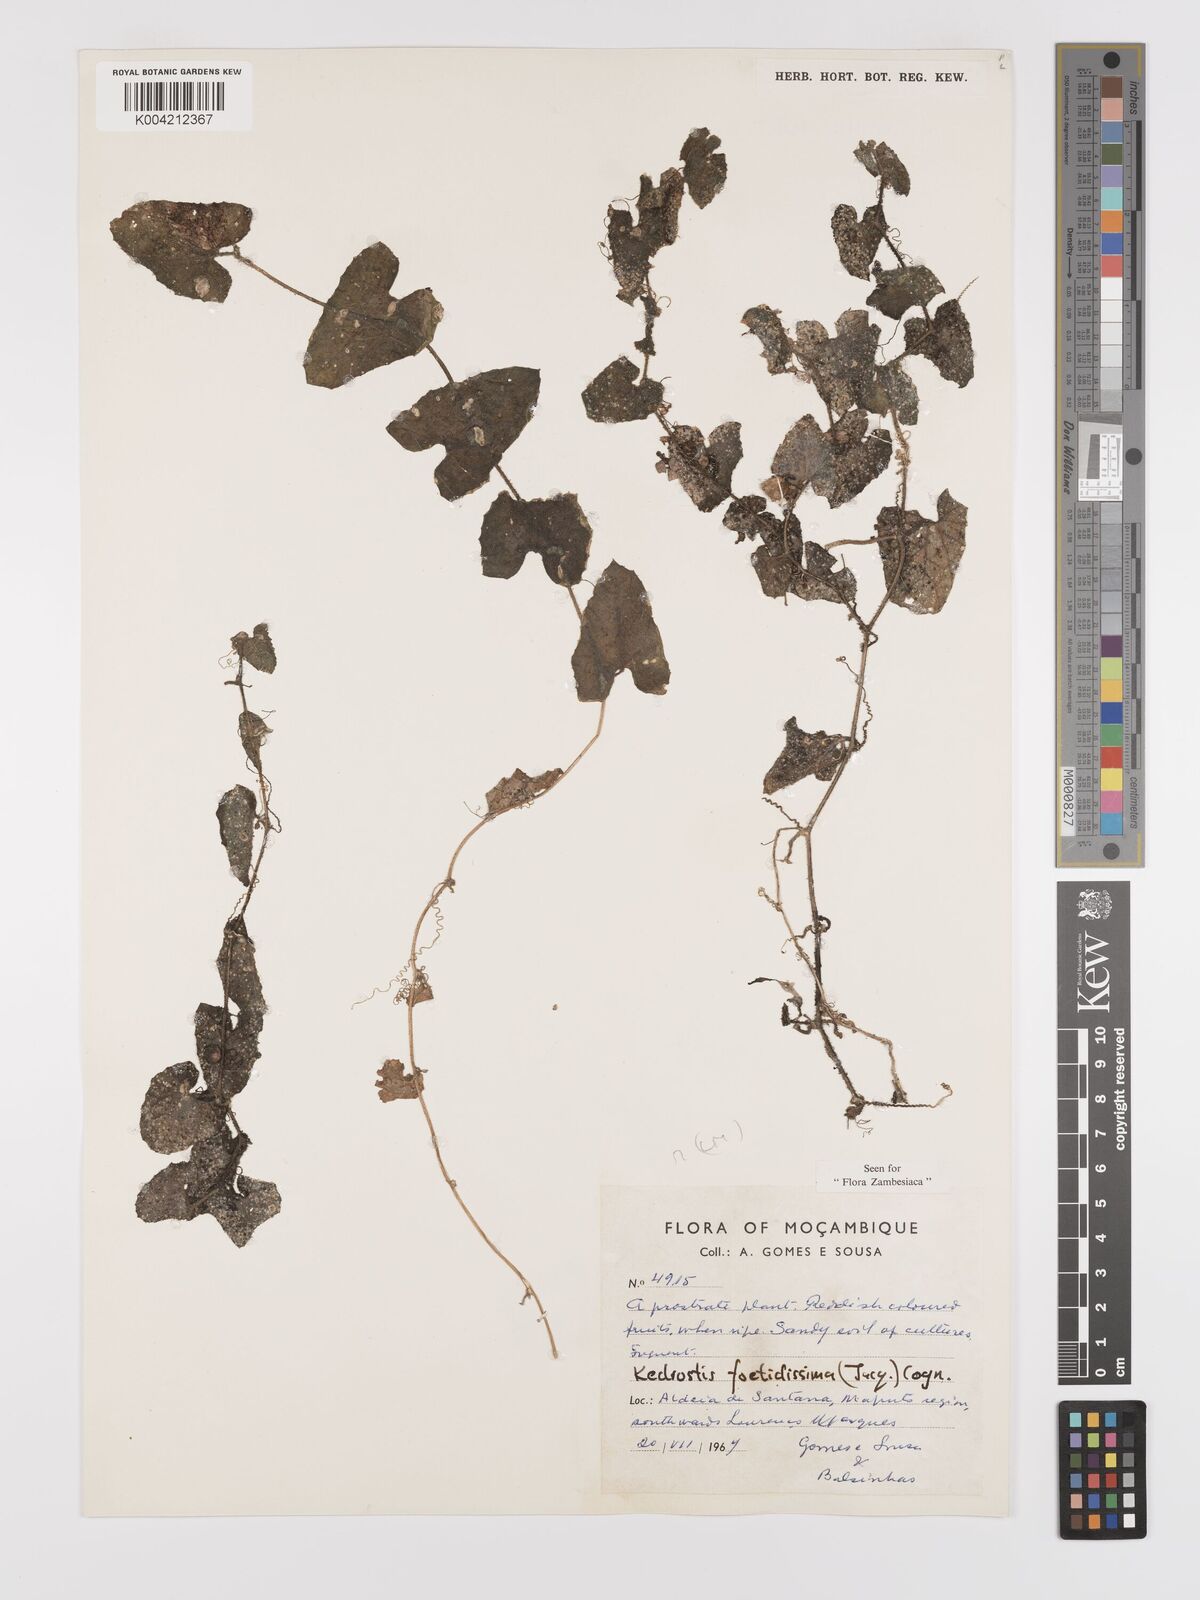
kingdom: Plantae
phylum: Tracheophyta
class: Magnoliopsida
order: Cucurbitales
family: Cucurbitaceae
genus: Kedrostis
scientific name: Kedrostis foetidissima
